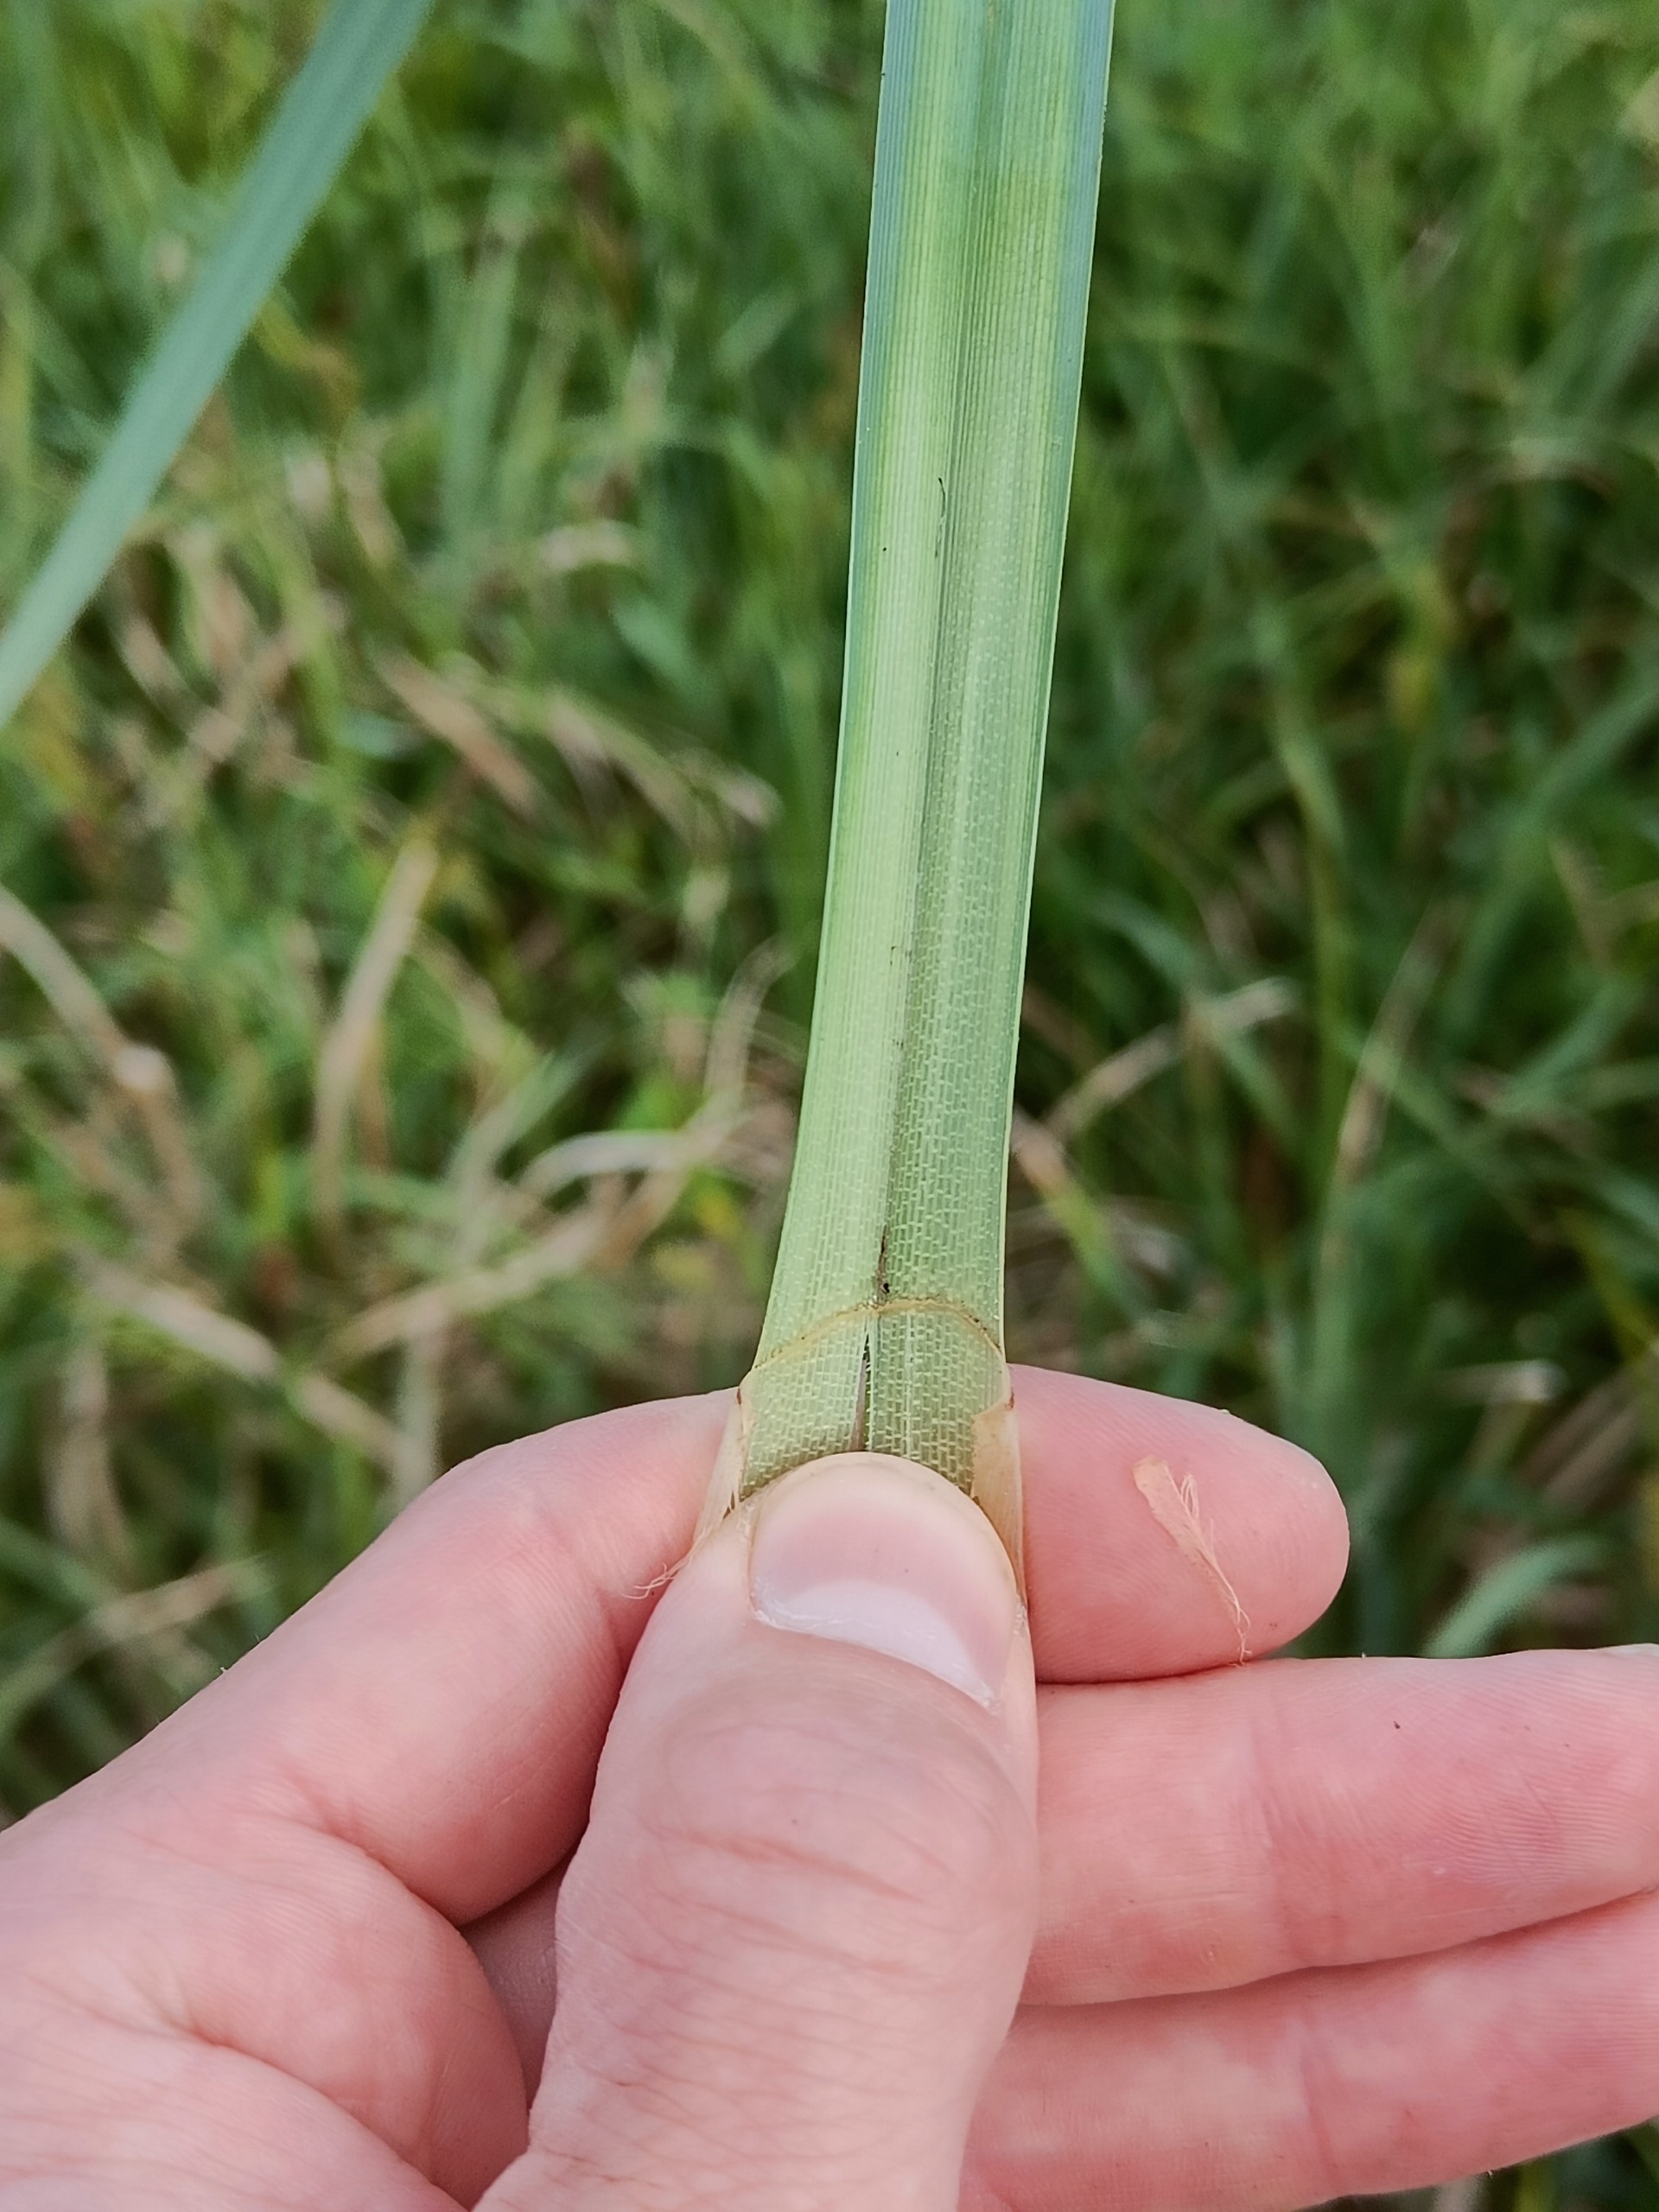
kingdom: Plantae
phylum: Tracheophyta
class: Liliopsida
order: Poales
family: Cyperaceae
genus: Carex
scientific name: Carex riparia
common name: Tykakset star
